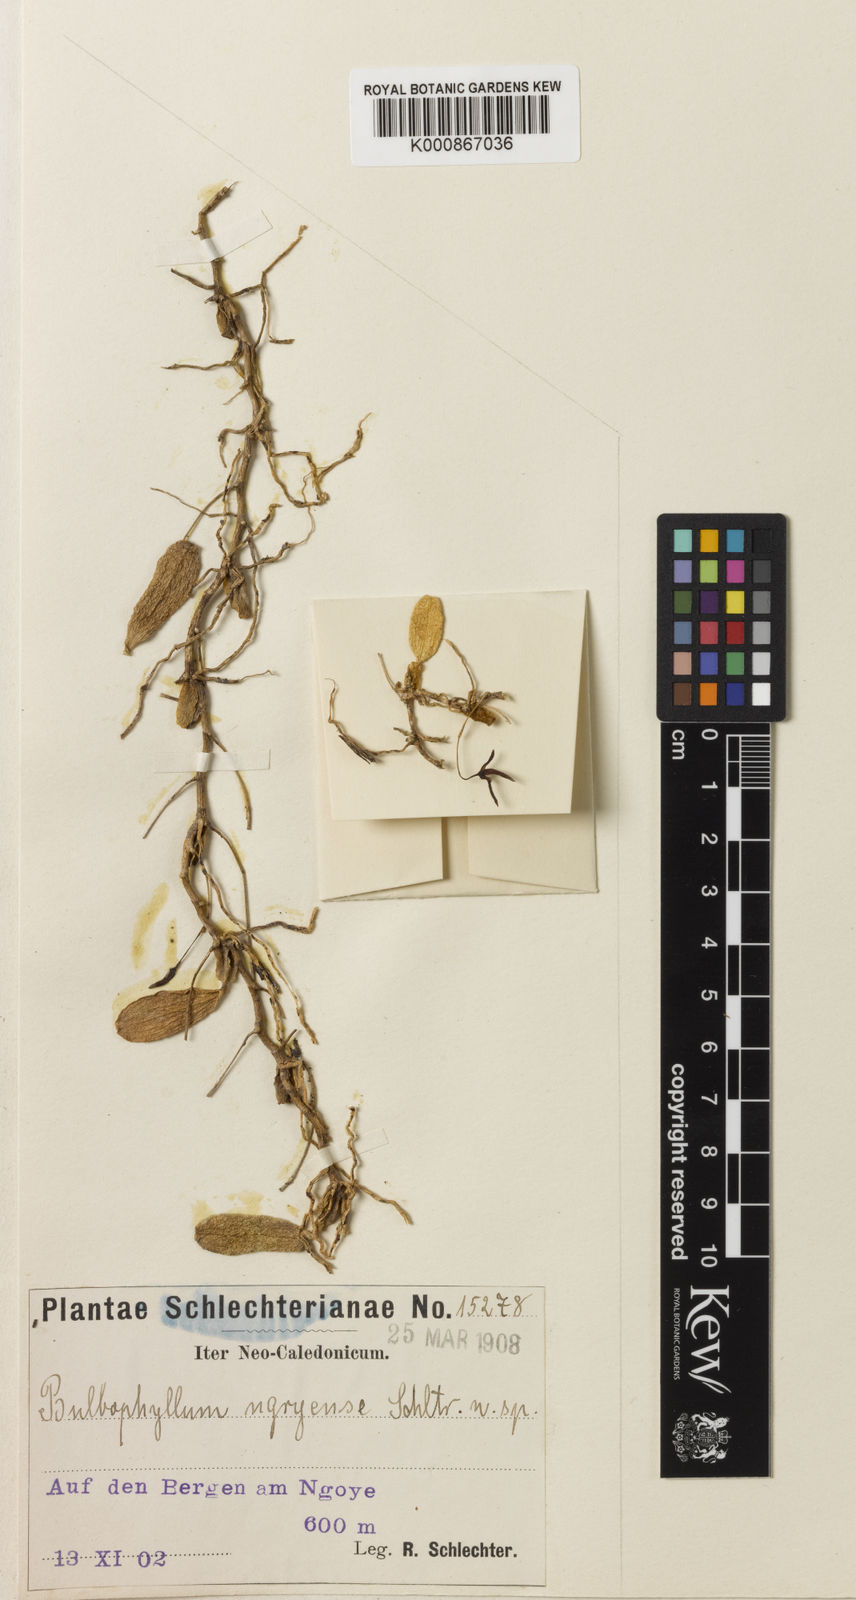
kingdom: Plantae
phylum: Tracheophyta
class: Liliopsida
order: Asparagales
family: Orchidaceae
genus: Bulbophyllum
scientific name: Bulbophyllum ngoyense
